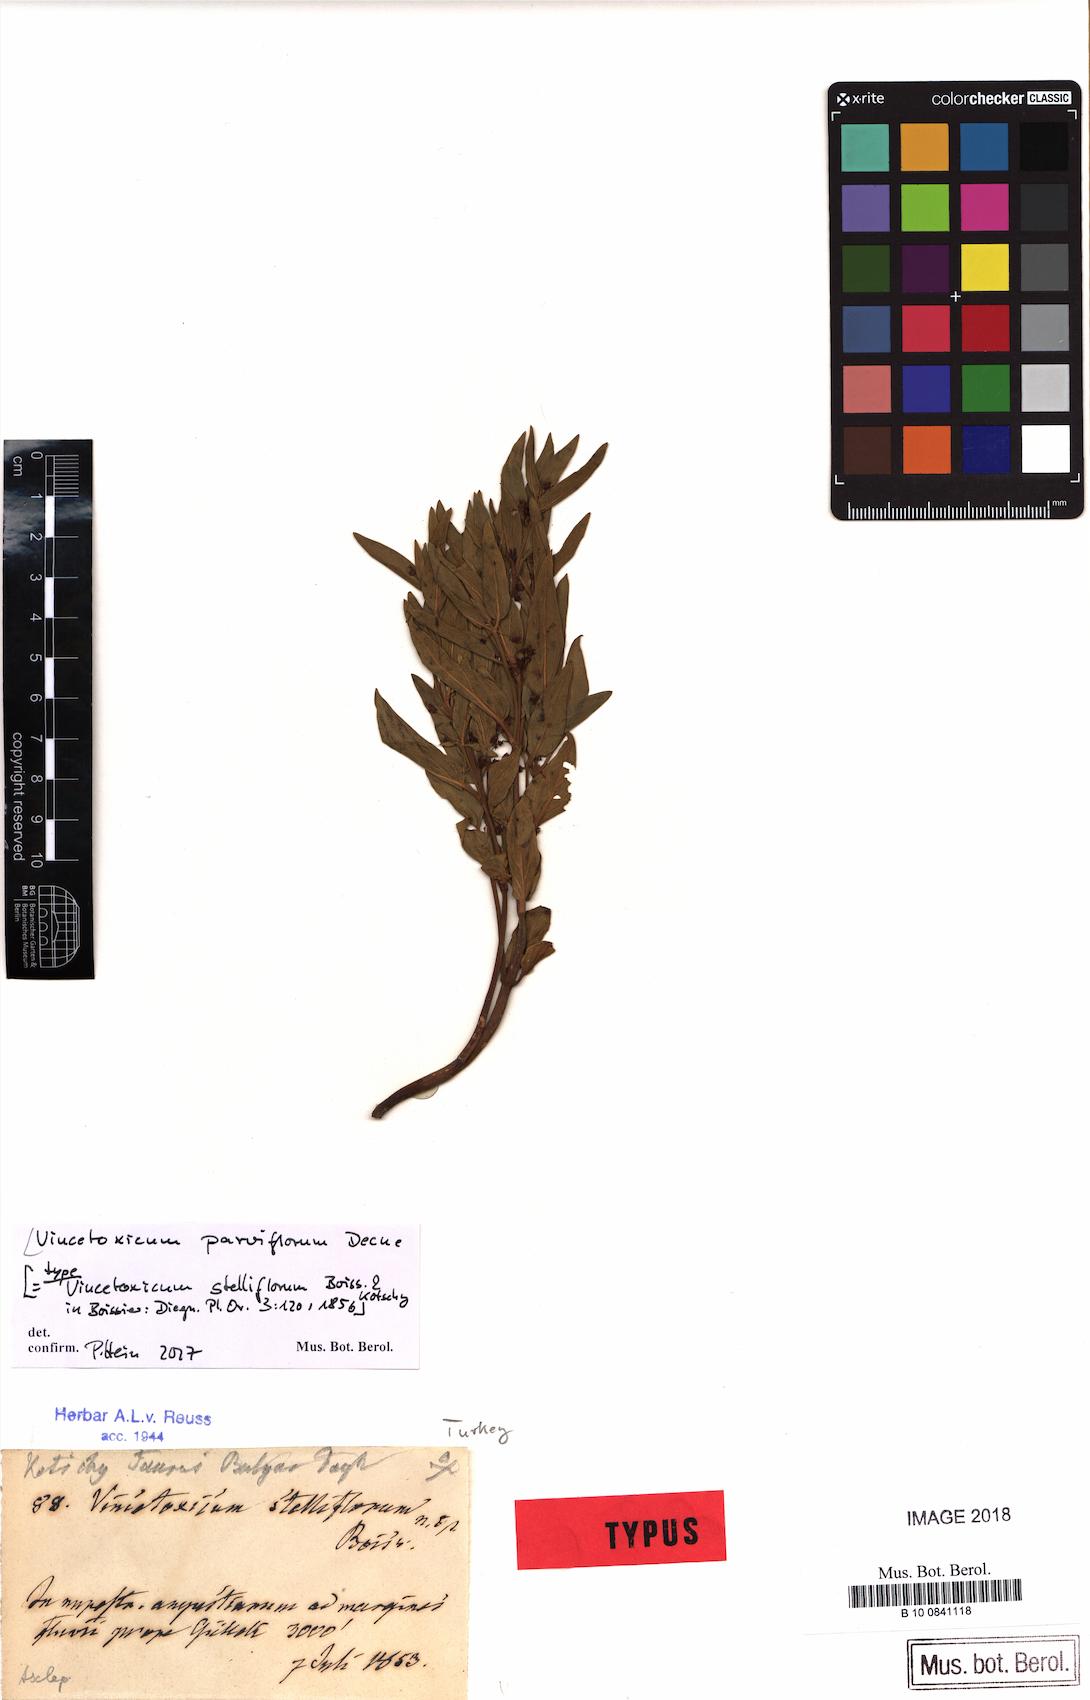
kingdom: Plantae
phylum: Tracheophyta
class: Magnoliopsida
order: Gentianales
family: Apocynaceae
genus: Vincetoxicum
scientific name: Vincetoxicum parviflorum
